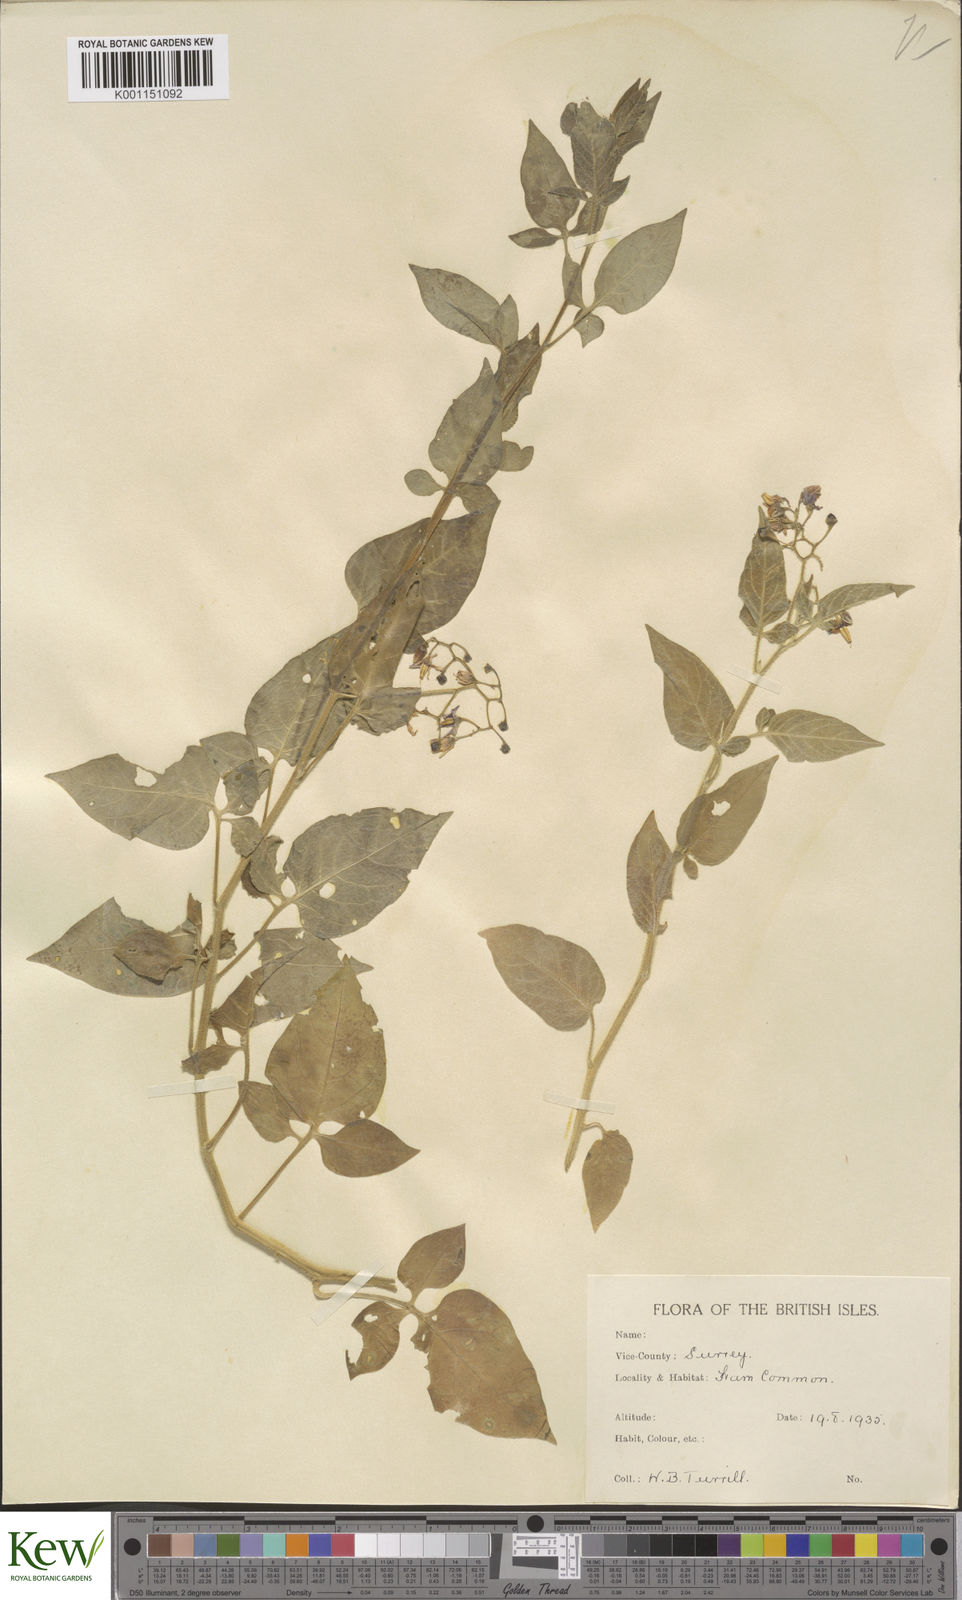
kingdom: Plantae
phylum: Tracheophyta
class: Magnoliopsida
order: Solanales
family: Solanaceae
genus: Solanum
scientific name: Solanum dulcamara
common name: Climbing nightshade
